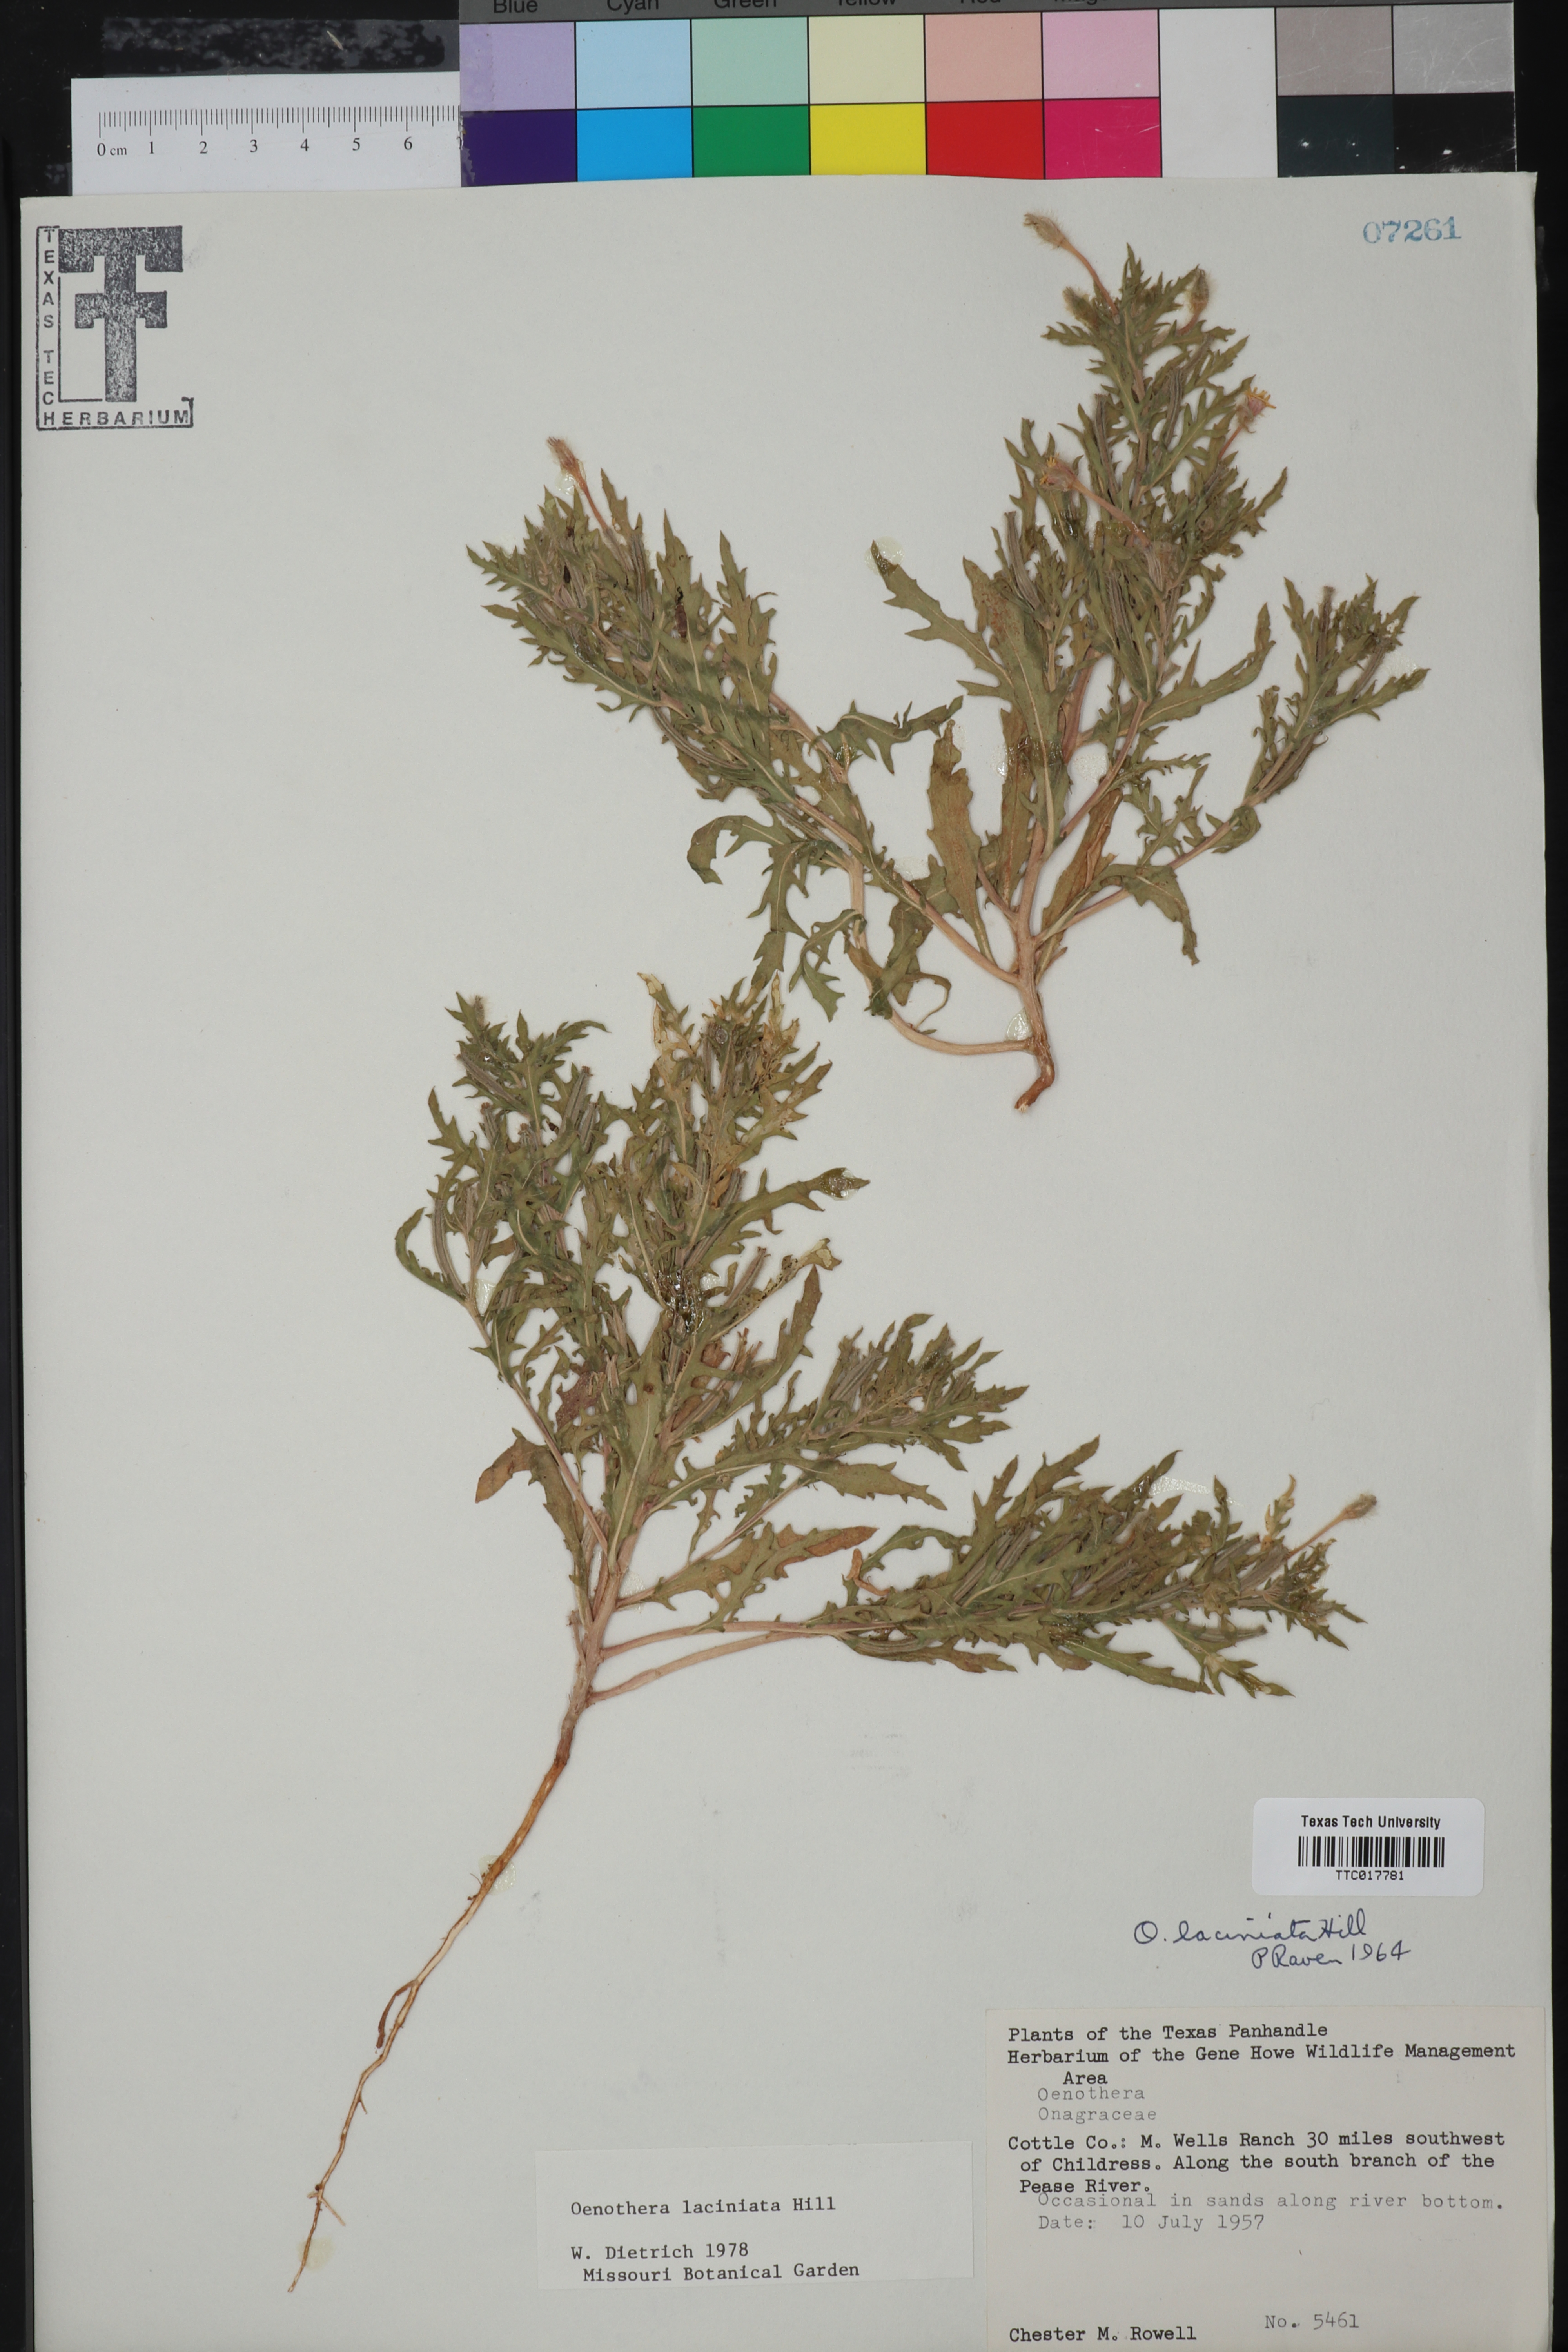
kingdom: Plantae
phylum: Tracheophyta
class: Magnoliopsida
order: Myrtales
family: Onagraceae
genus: Oenothera
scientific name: Oenothera laciniata
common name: Cut-leaved evening-primrose
